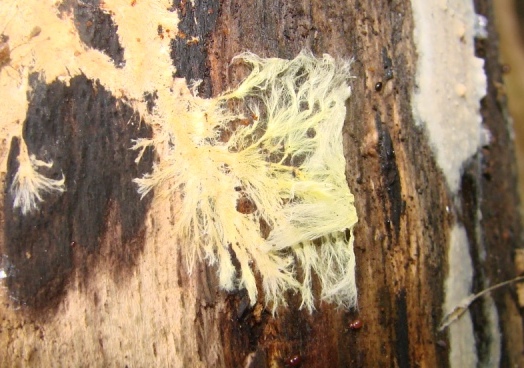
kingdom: Fungi
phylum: Basidiomycota
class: Agaricomycetes
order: Russulales
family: Xenasmataceae
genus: Xenasmatella
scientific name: Xenasmatella vaga
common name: svovl-strenghinde
